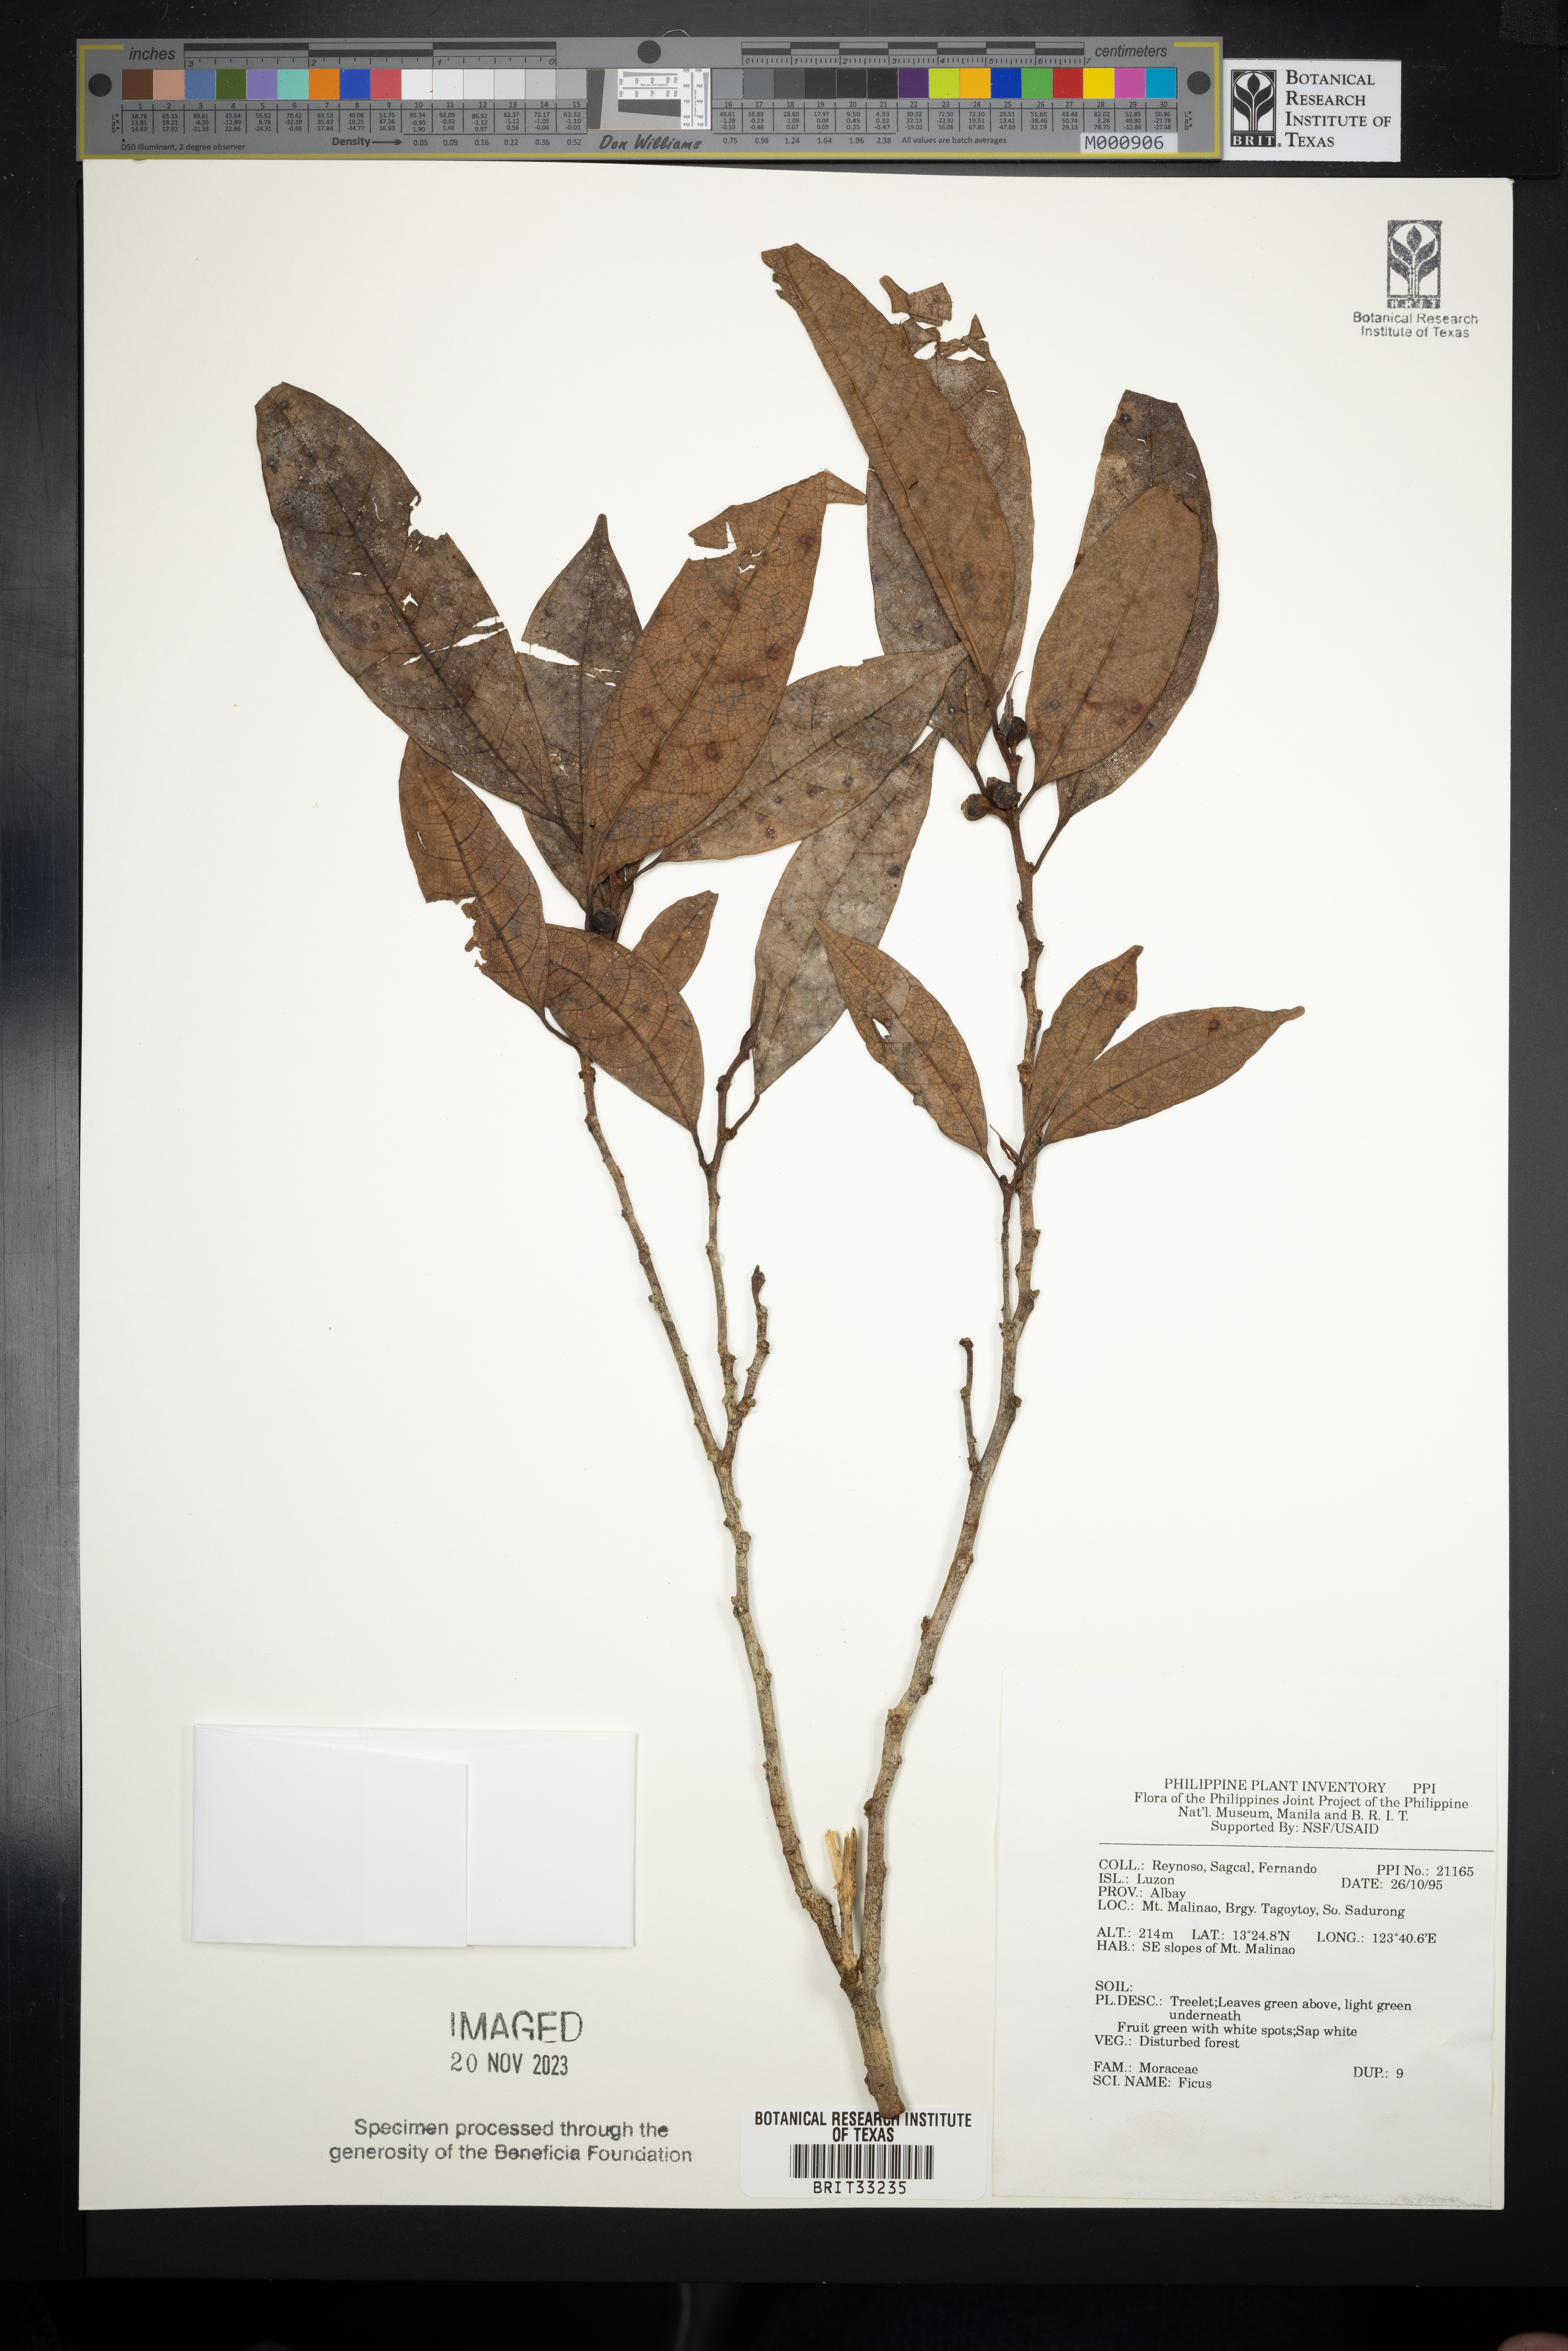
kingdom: Plantae
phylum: Tracheophyta
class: Magnoliopsida
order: Rosales
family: Moraceae
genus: Ficus
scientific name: Ficus
